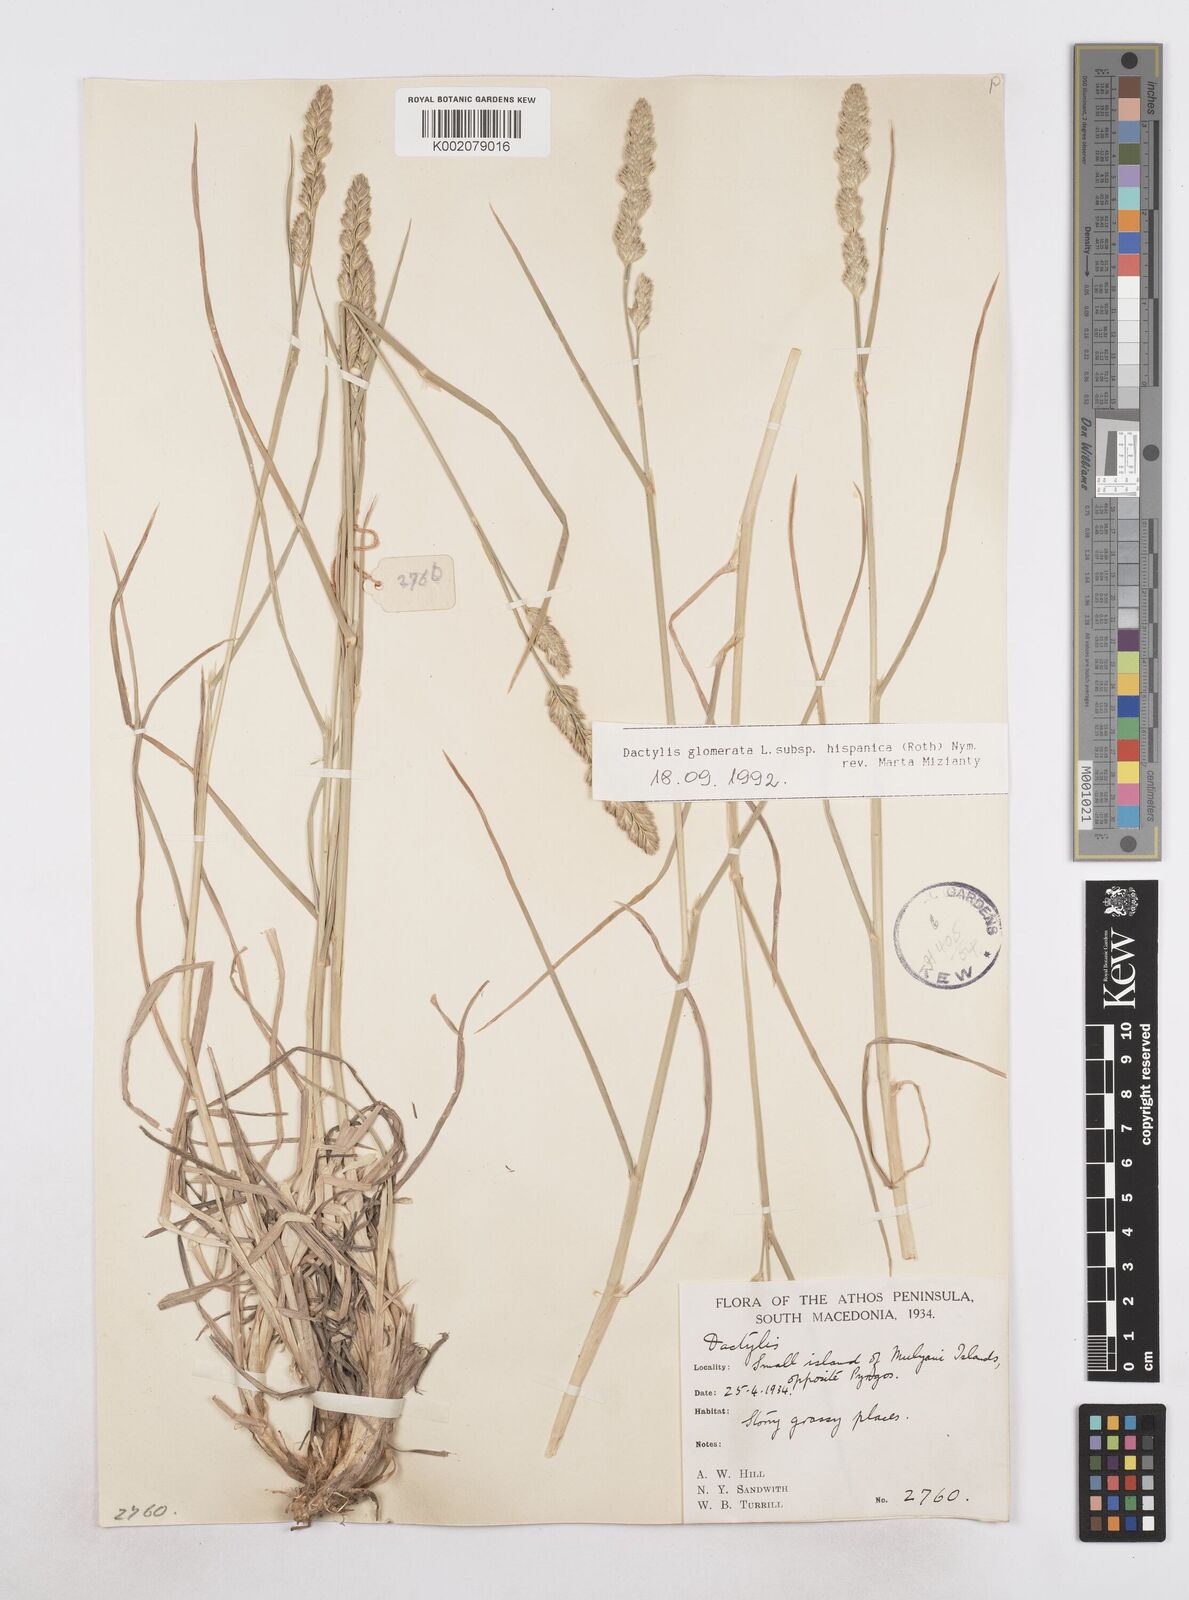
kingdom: Plantae
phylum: Tracheophyta
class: Liliopsida
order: Poales
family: Poaceae
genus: Dactylis
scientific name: Dactylis glomerata
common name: Orchardgrass
